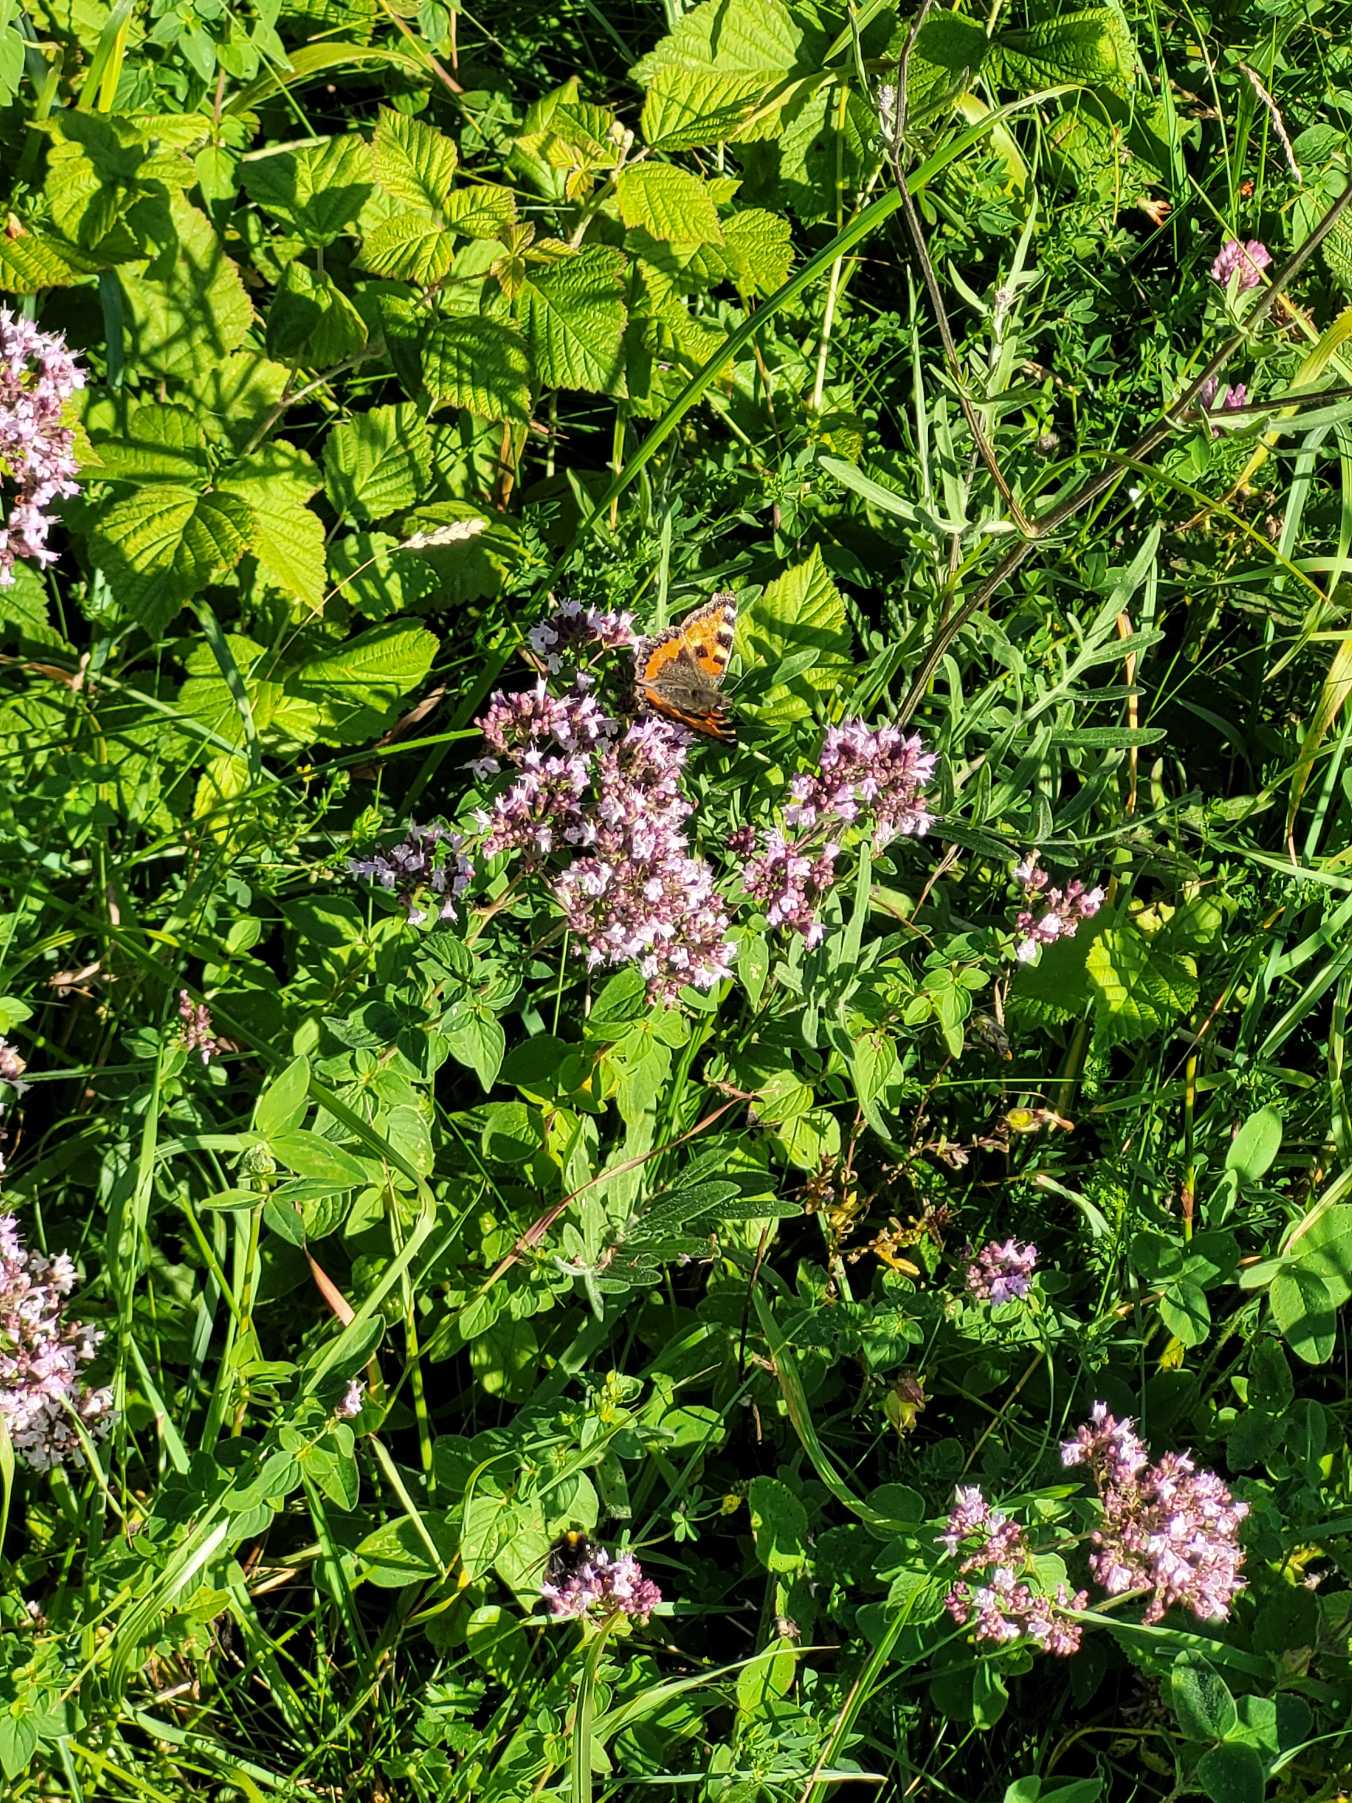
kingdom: Animalia
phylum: Arthropoda
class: Insecta
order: Lepidoptera
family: Nymphalidae
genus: Aglais
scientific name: Aglais urticae
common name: Nældens takvinge
